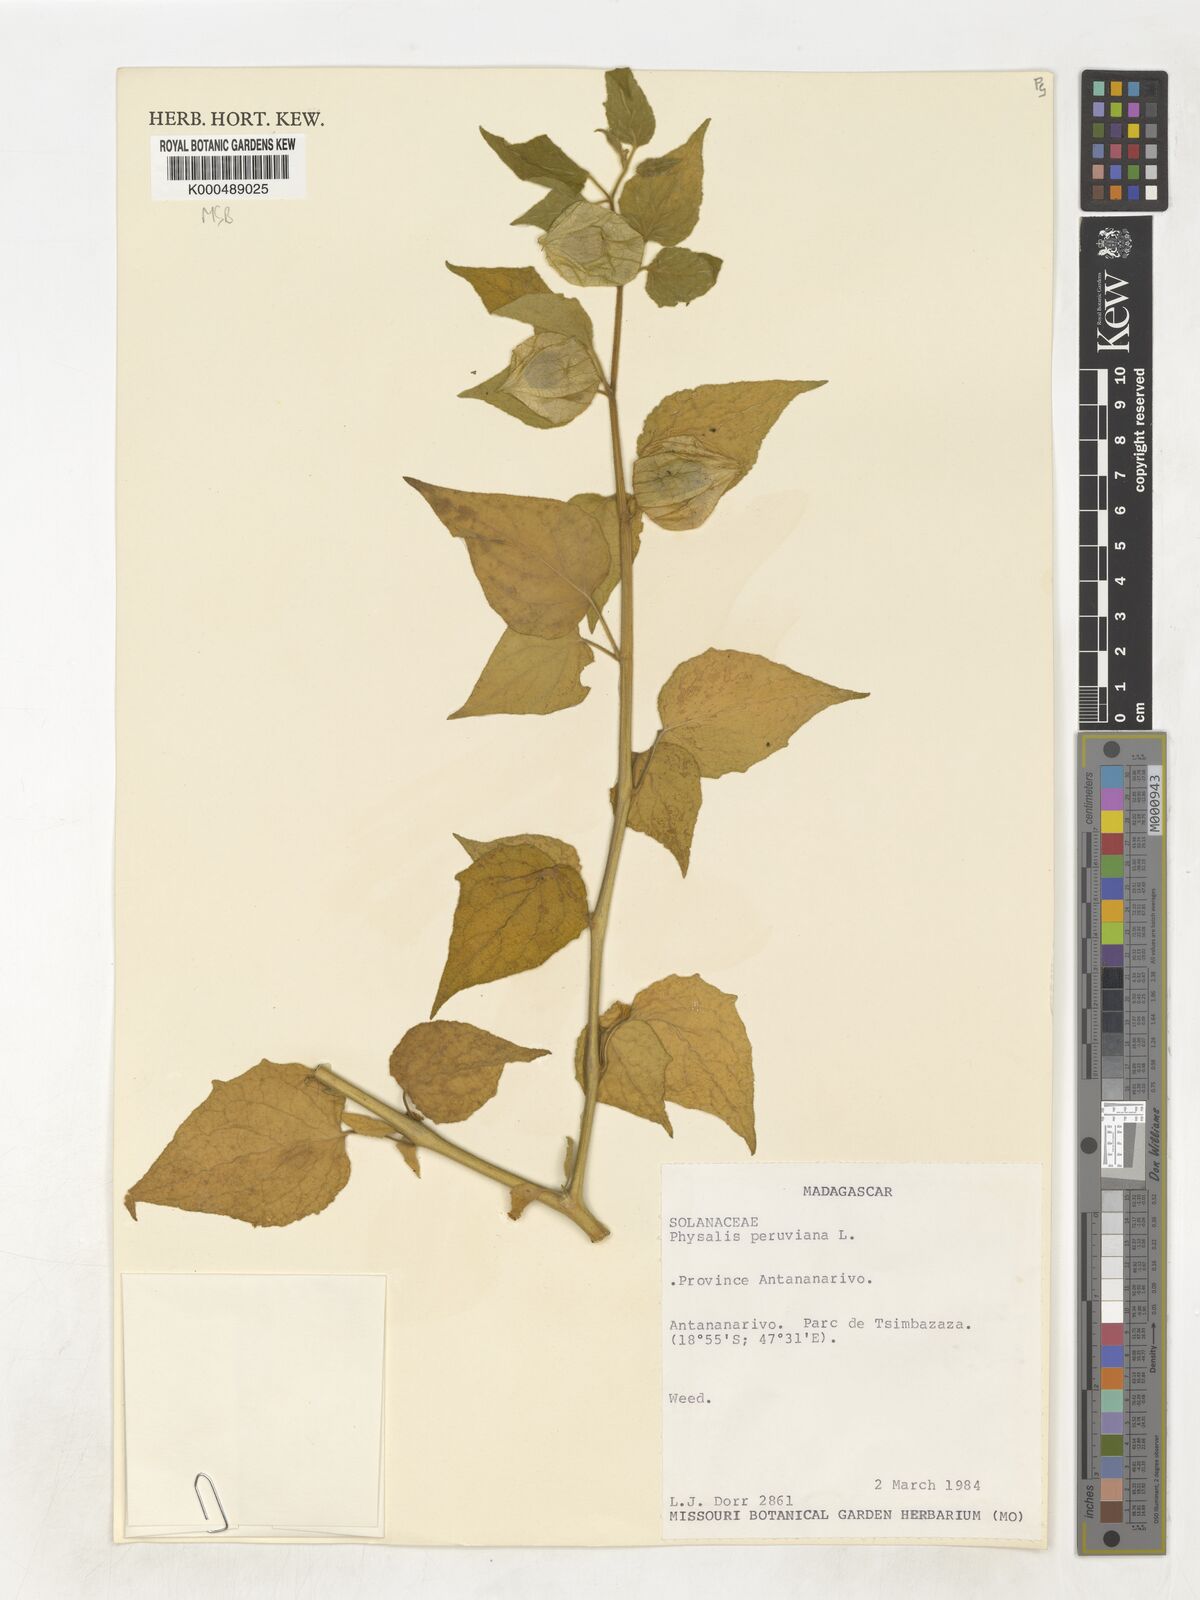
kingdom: Plantae
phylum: Tracheophyta
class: Magnoliopsida
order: Solanales
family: Solanaceae
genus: Physalis
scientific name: Physalis peruviana
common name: Cape-gooseberry
